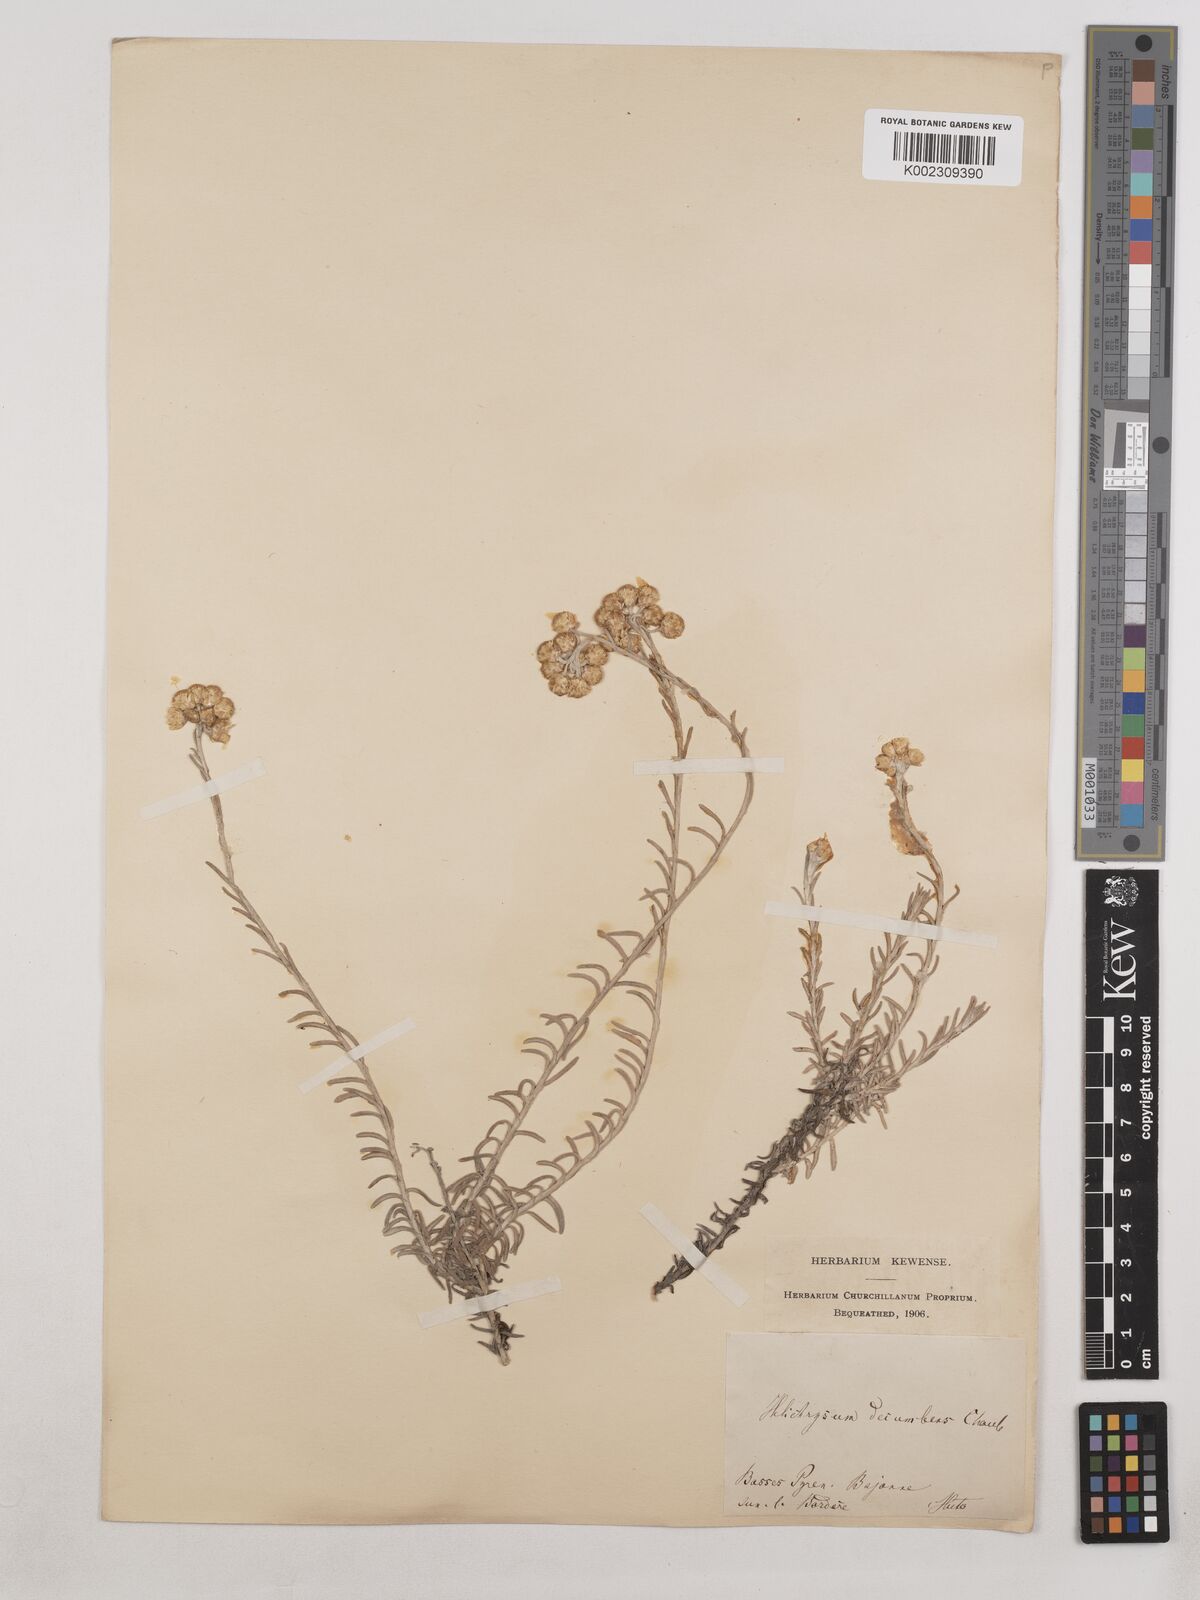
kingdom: Plantae
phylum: Tracheophyta
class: Magnoliopsida
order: Asterales
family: Asteraceae
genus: Helichrysum
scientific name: Helichrysum stoechas
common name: Goldilocks
